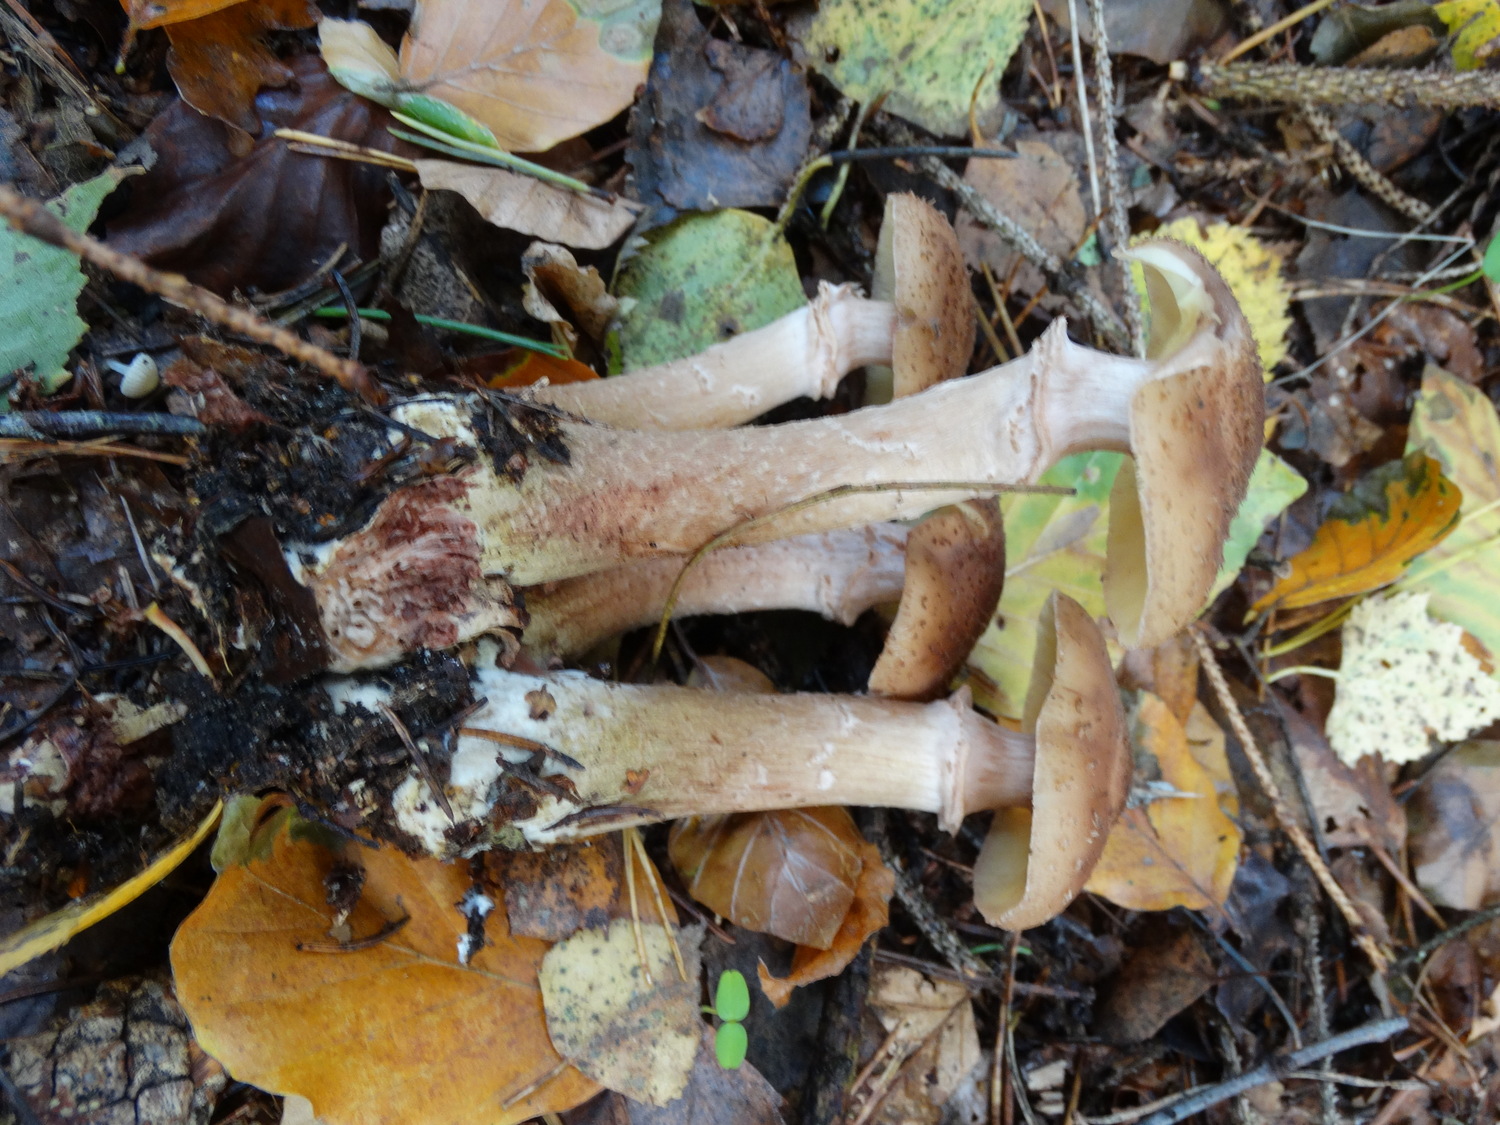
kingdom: Fungi
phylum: Basidiomycota
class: Agaricomycetes
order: Agaricales
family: Physalacriaceae
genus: Armillaria
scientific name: Armillaria lutea
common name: køllestokket honningsvamp
